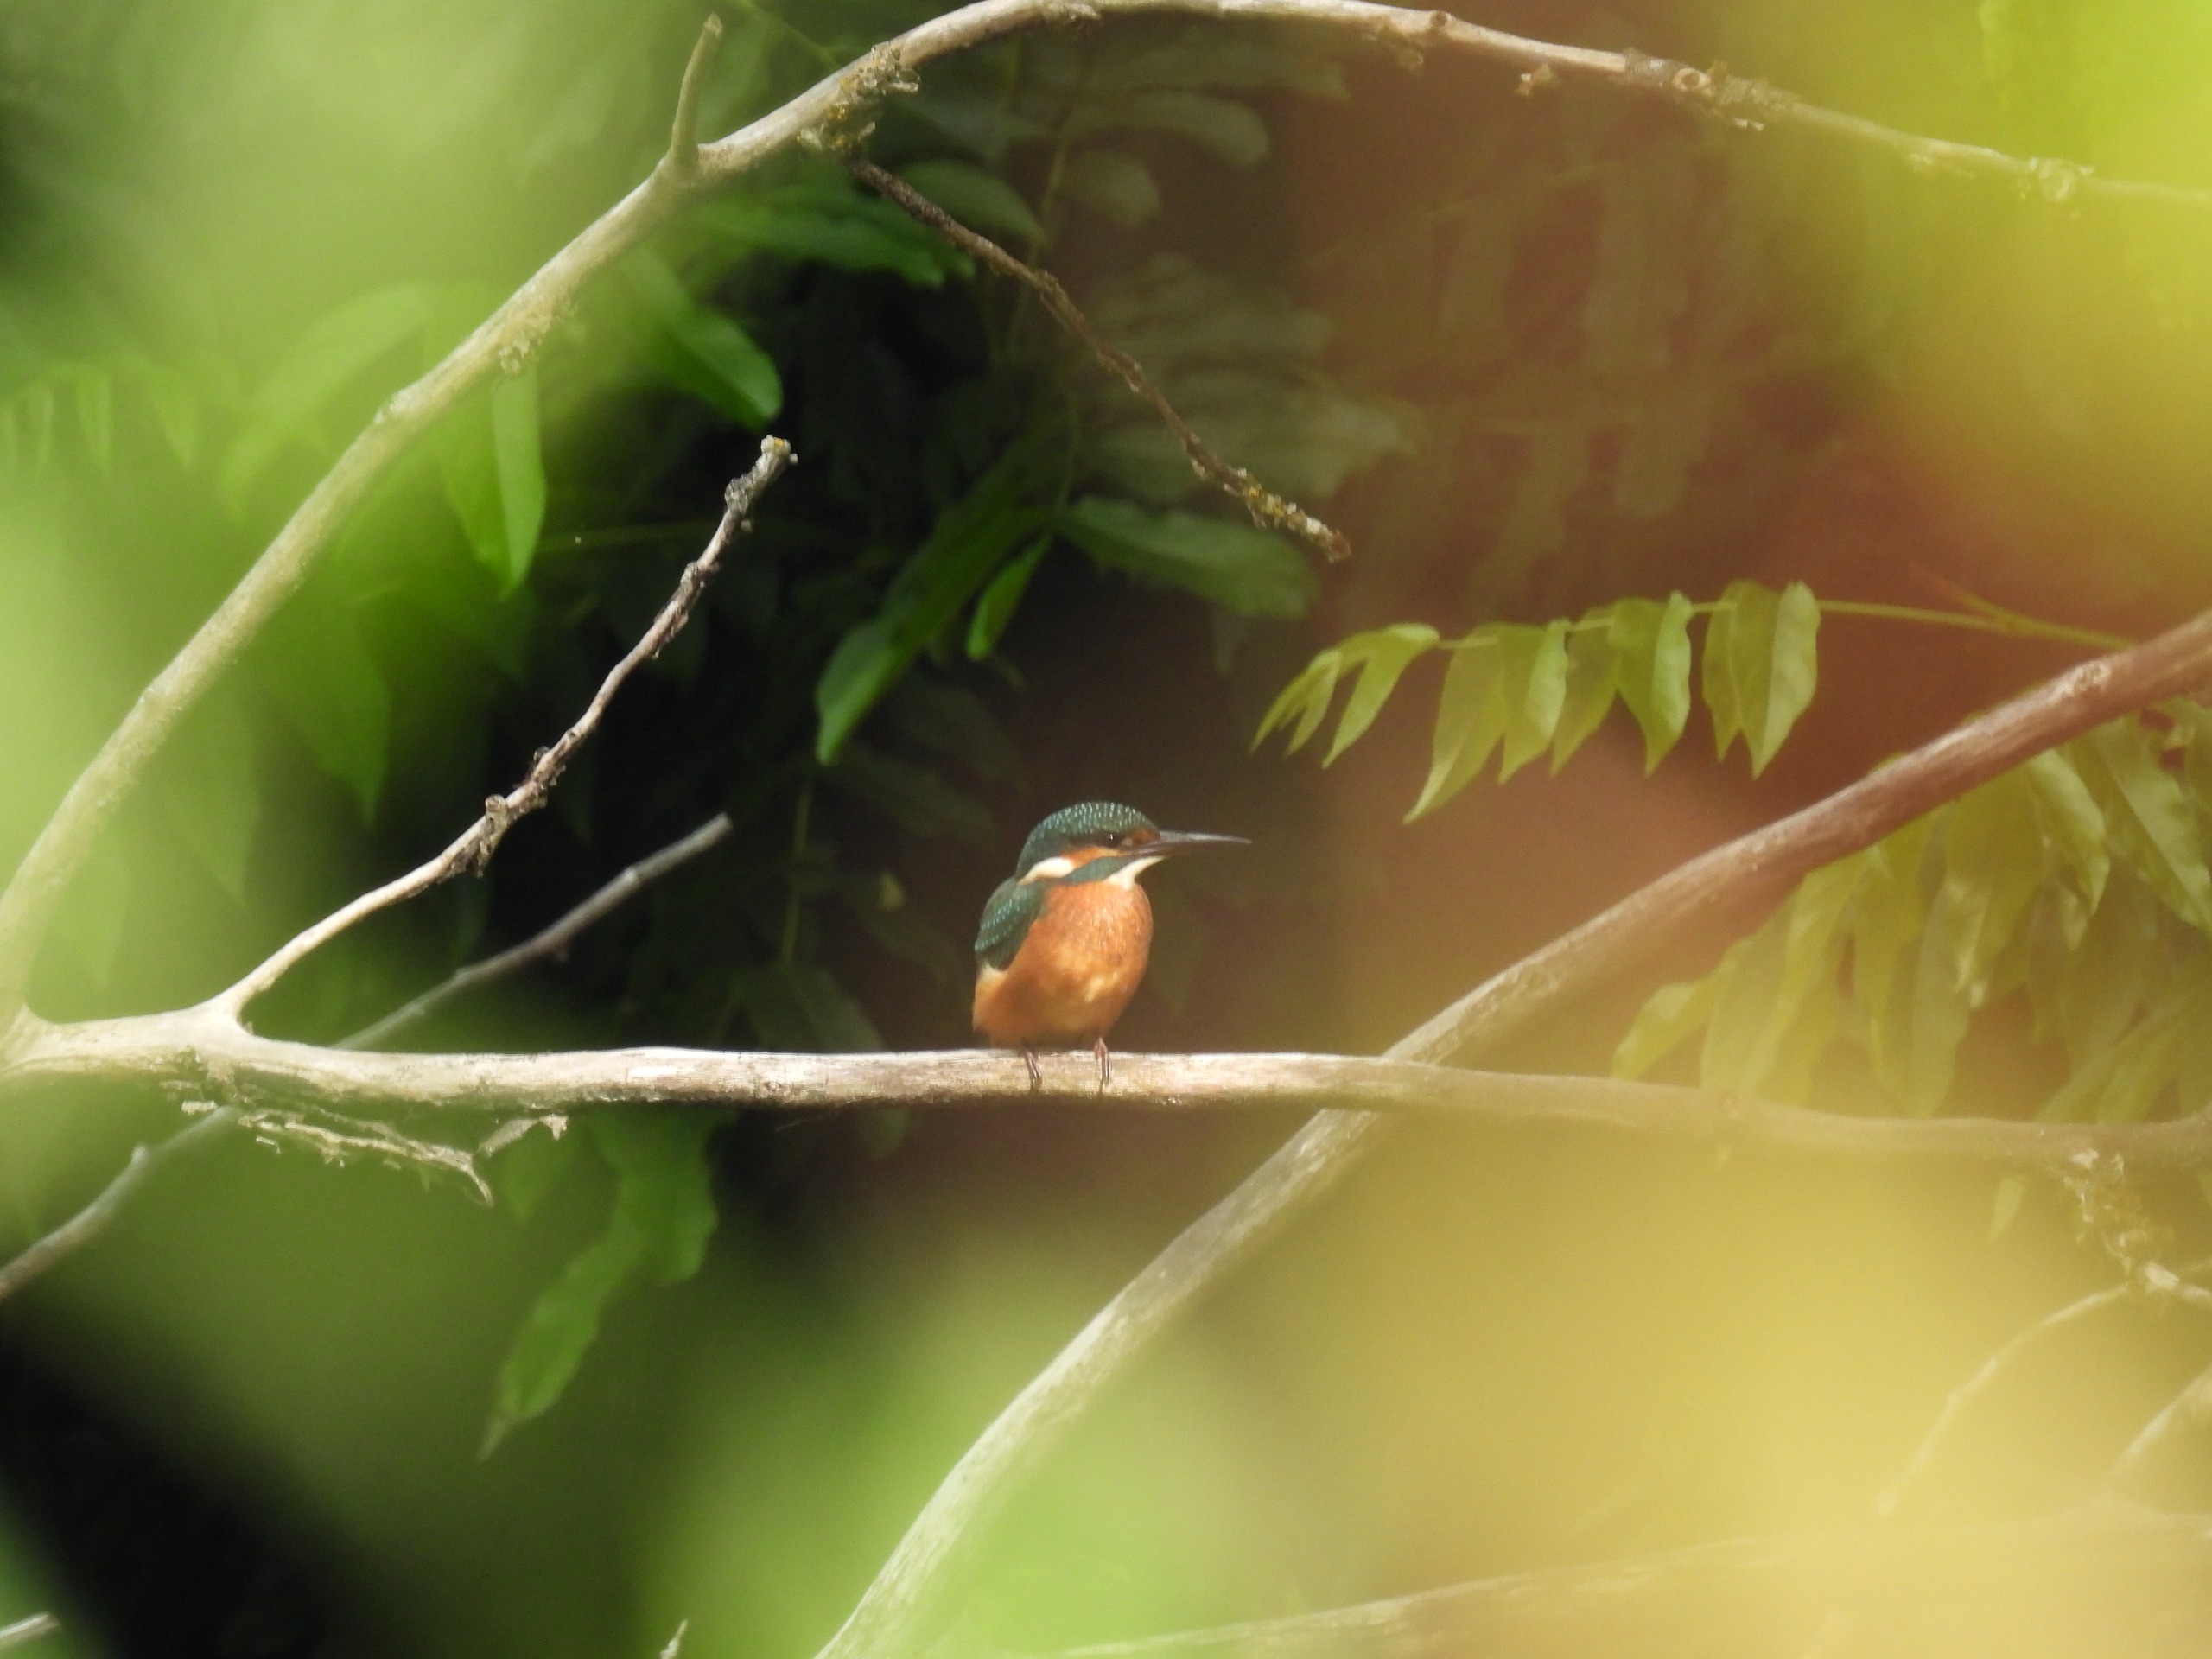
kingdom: Animalia
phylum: Chordata
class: Aves
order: Coraciiformes
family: Alcedinidae
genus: Alcedo
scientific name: Alcedo atthis
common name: Isfugl
